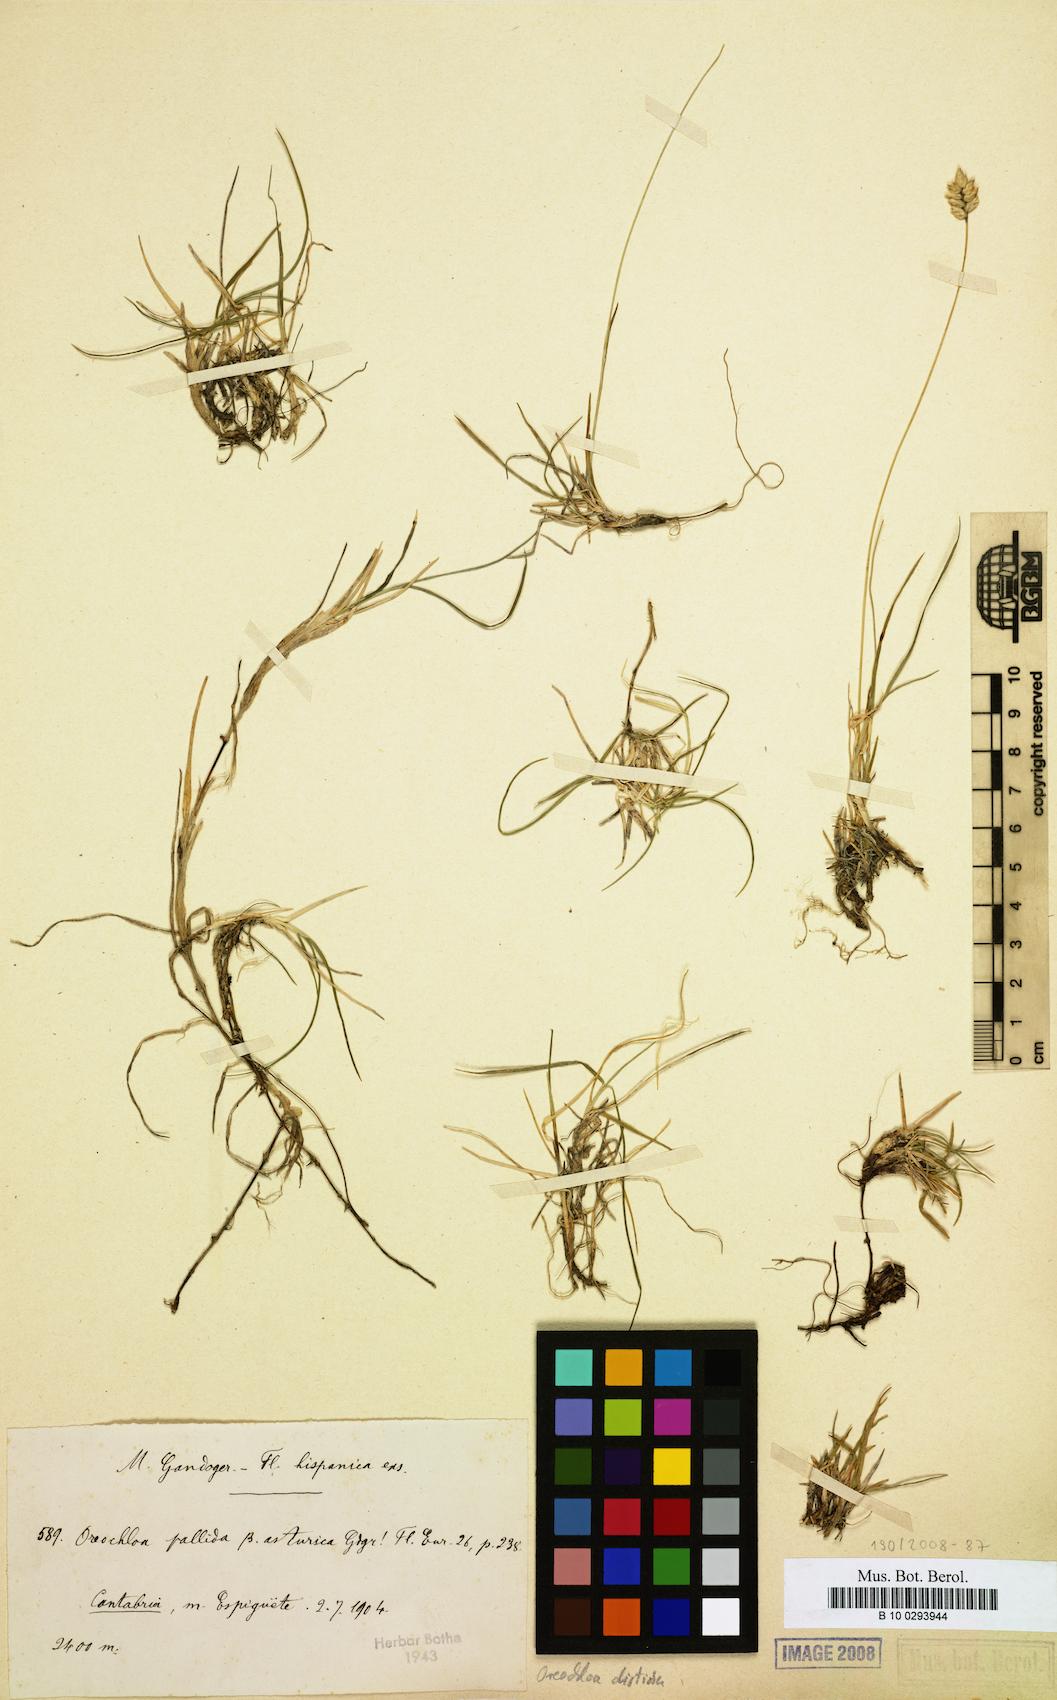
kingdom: Plantae
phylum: Tracheophyta
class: Liliopsida
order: Poales
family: Poaceae
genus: Oreochloa
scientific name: Oreochloa disticha
